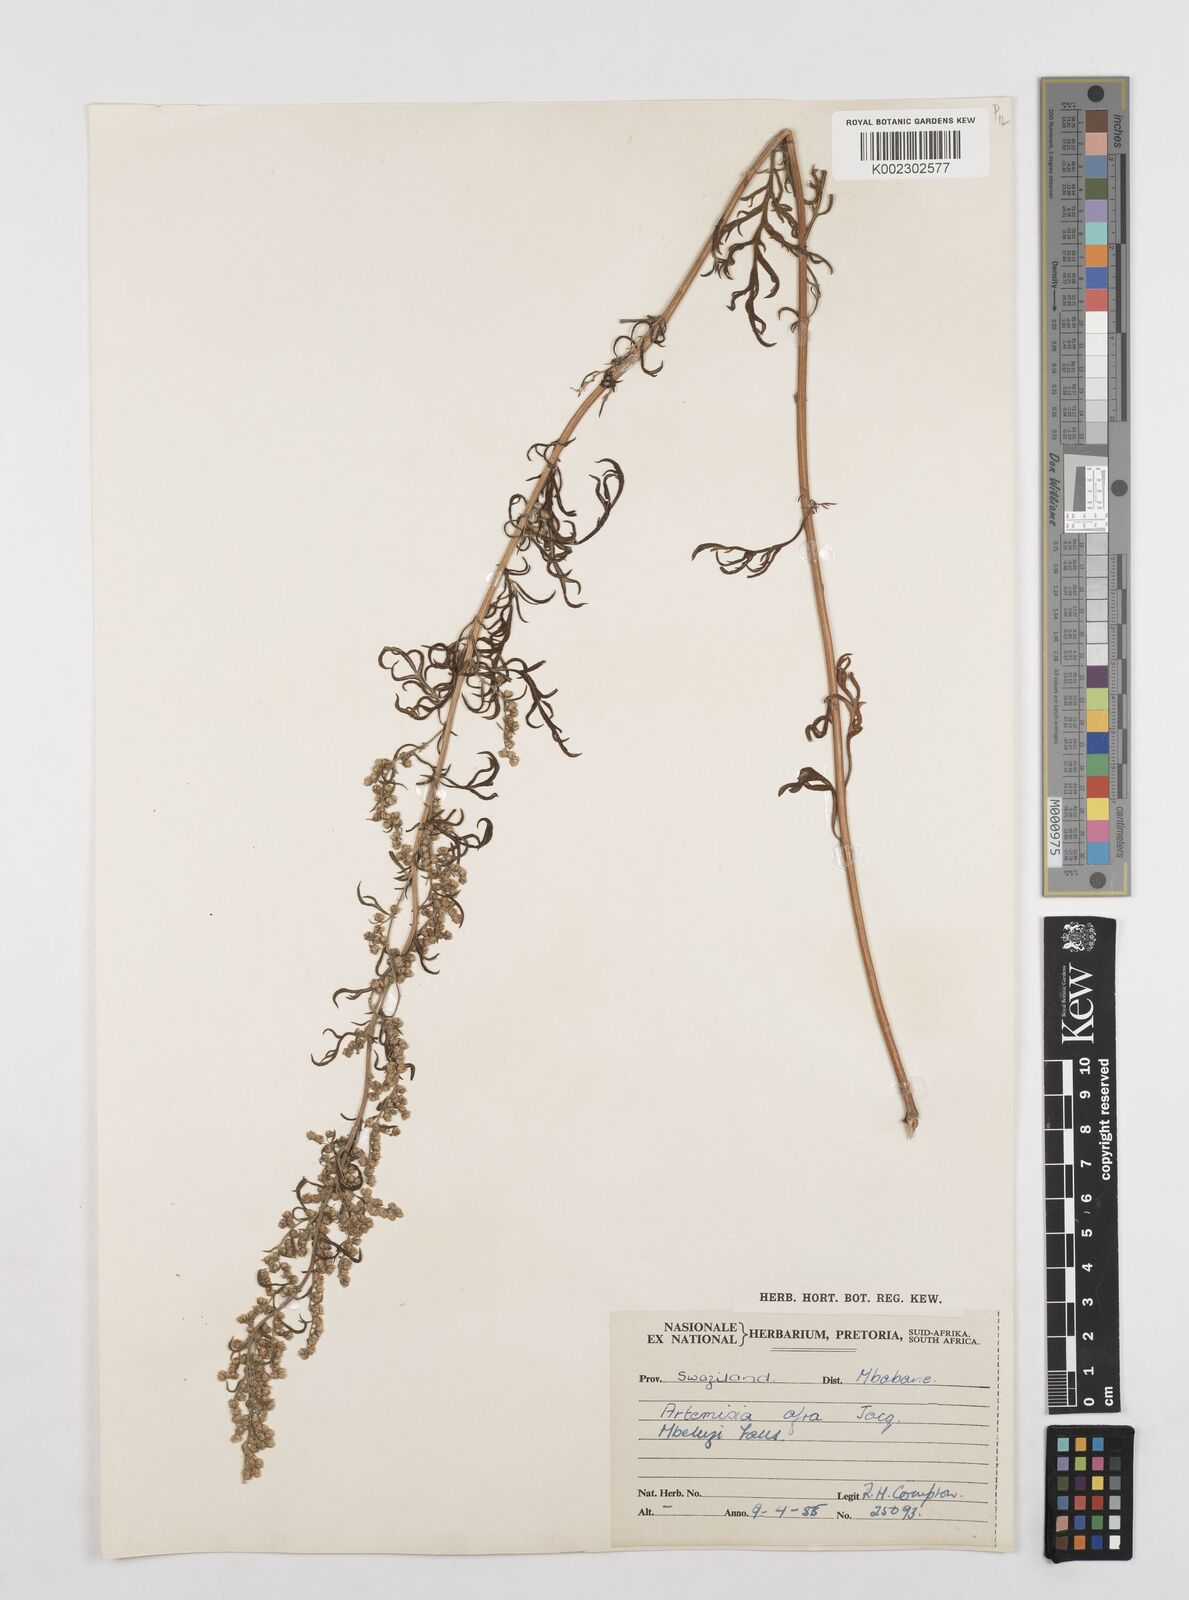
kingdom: Plantae
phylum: Tracheophyta
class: Magnoliopsida
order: Asterales
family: Asteraceae
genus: Artemisia
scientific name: Artemisia afra
